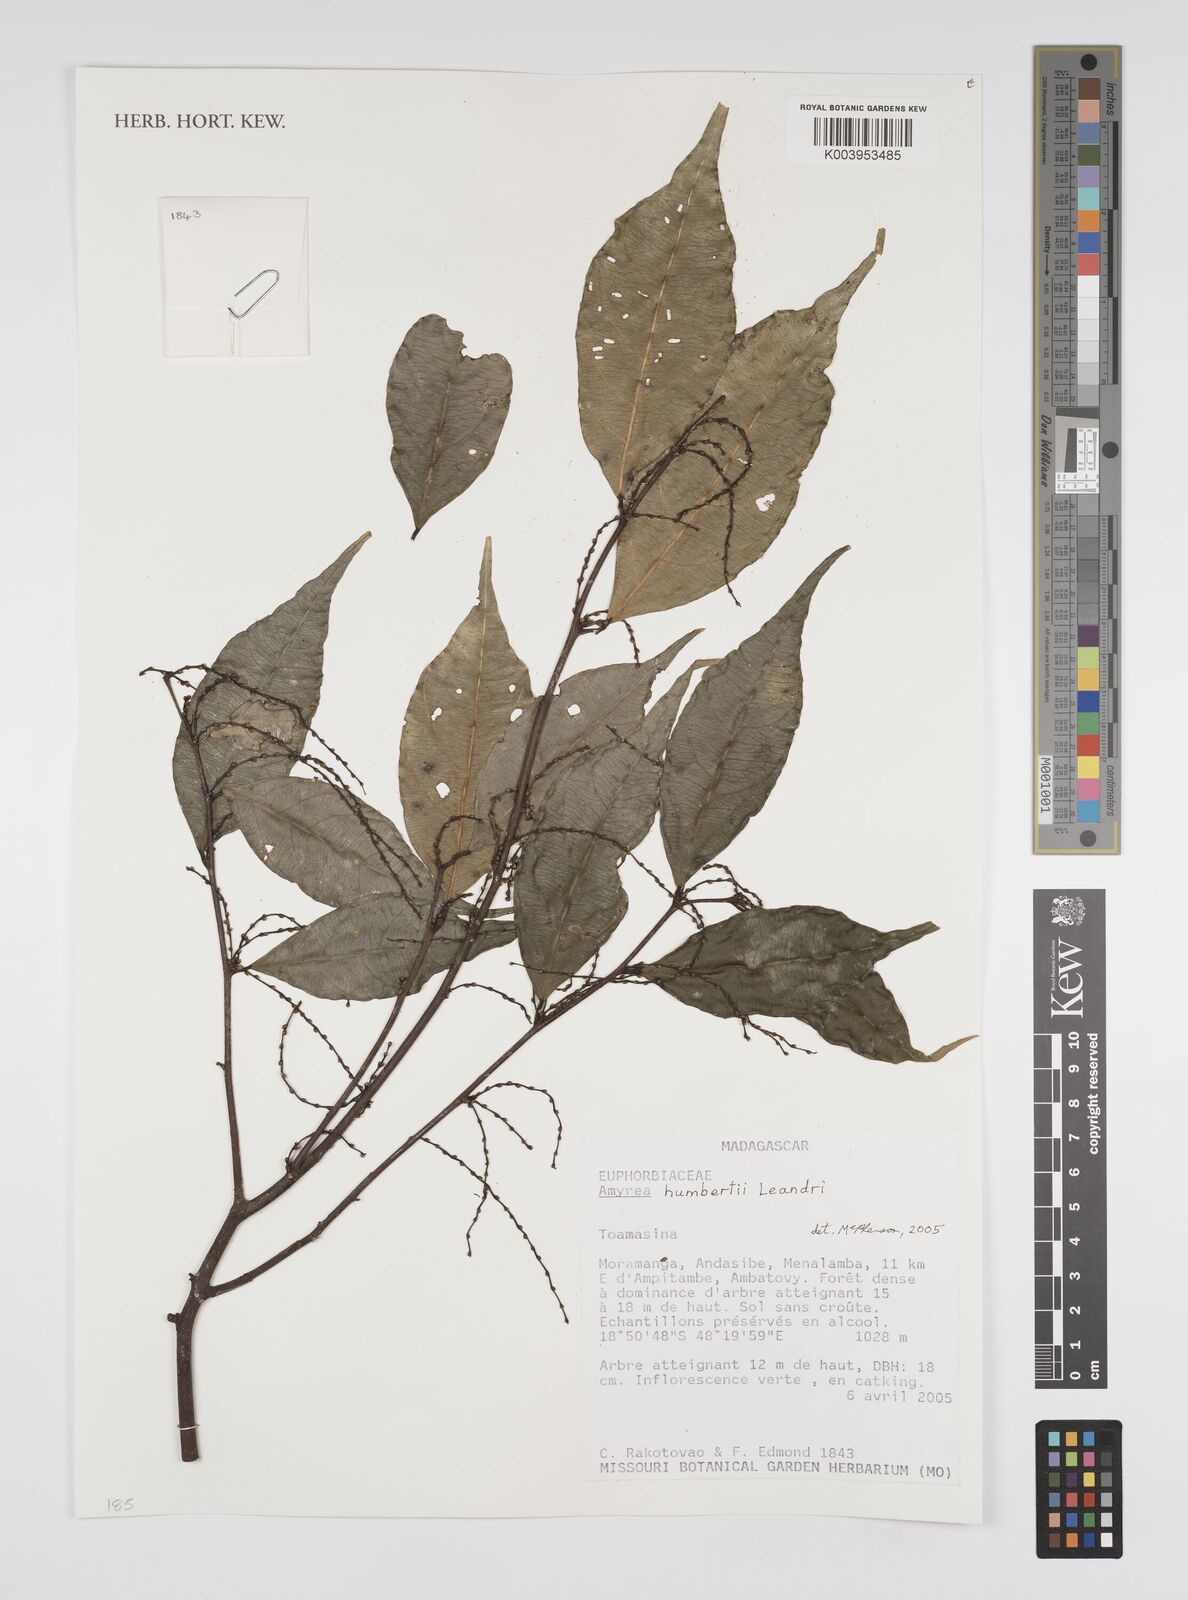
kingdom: Plantae
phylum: Tracheophyta
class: Magnoliopsida
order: Malpighiales
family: Euphorbiaceae
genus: Amyrea
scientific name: Amyrea humbertii
